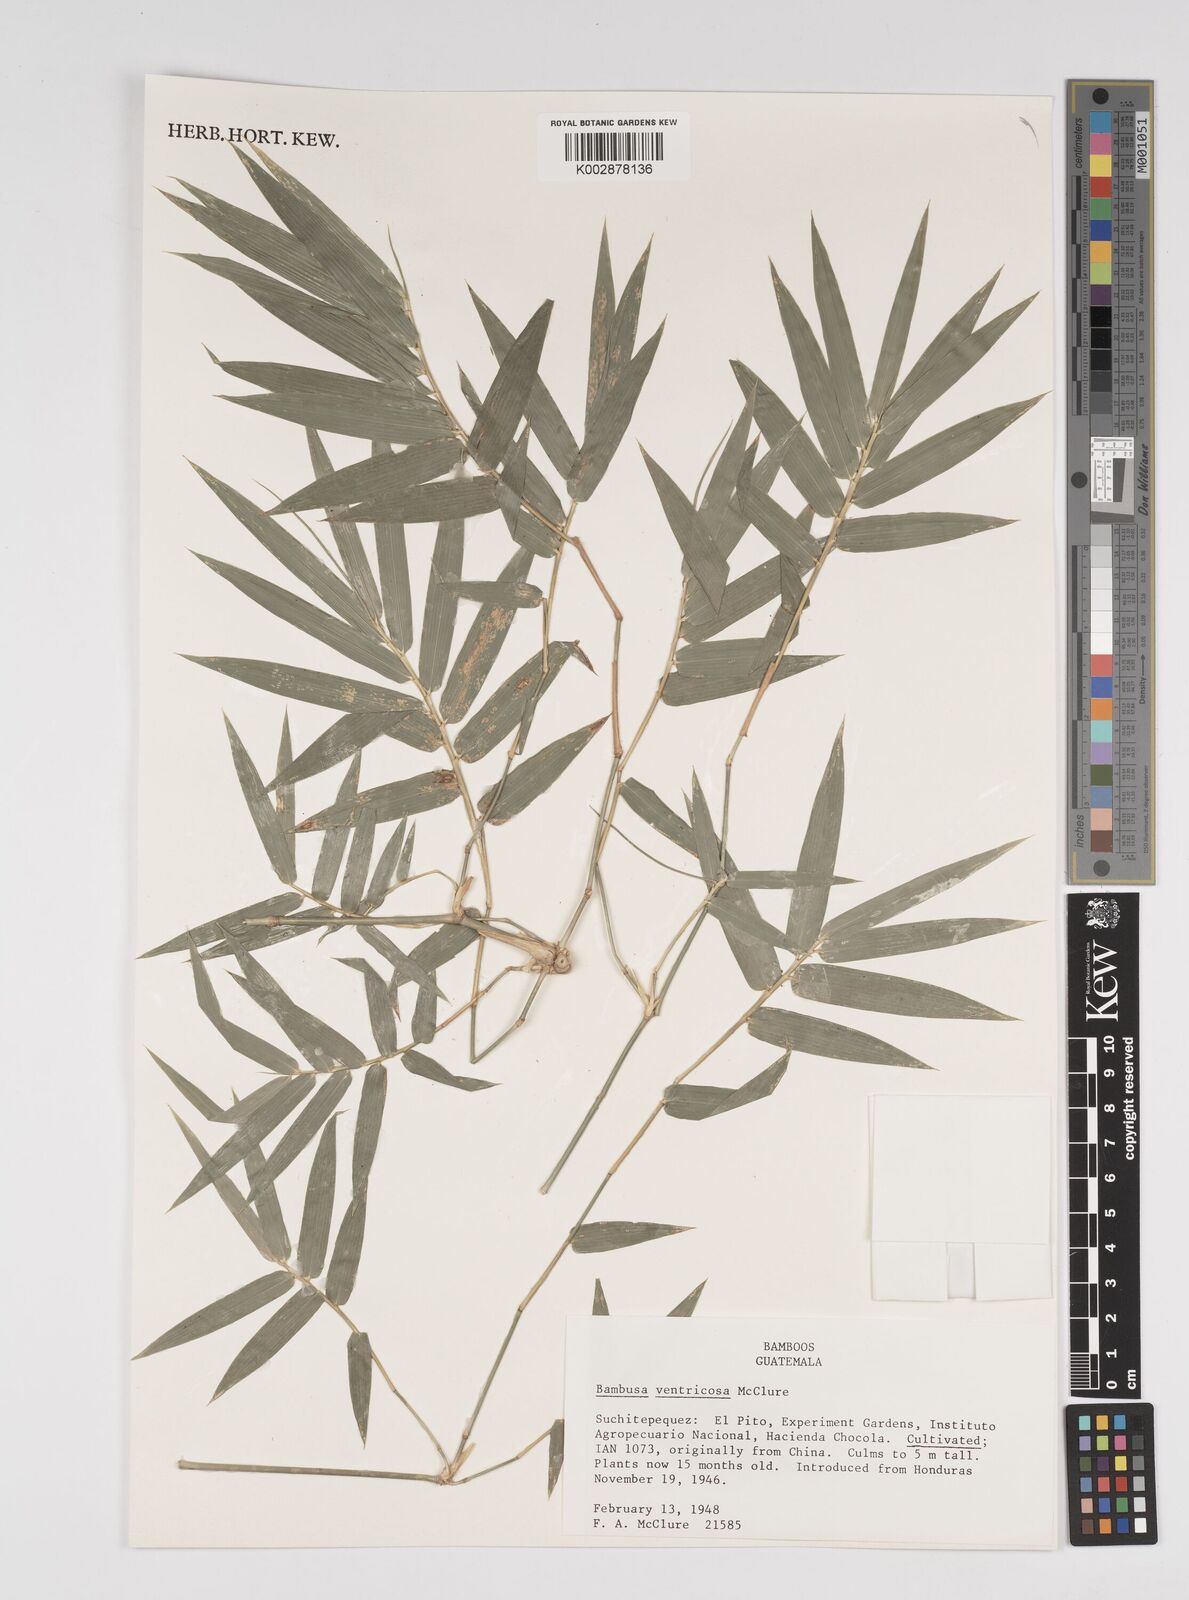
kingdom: Plantae
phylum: Tracheophyta
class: Liliopsida
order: Poales
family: Poaceae
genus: Bambusa
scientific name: Bambusa ventricosa
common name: Buddha bamboo
